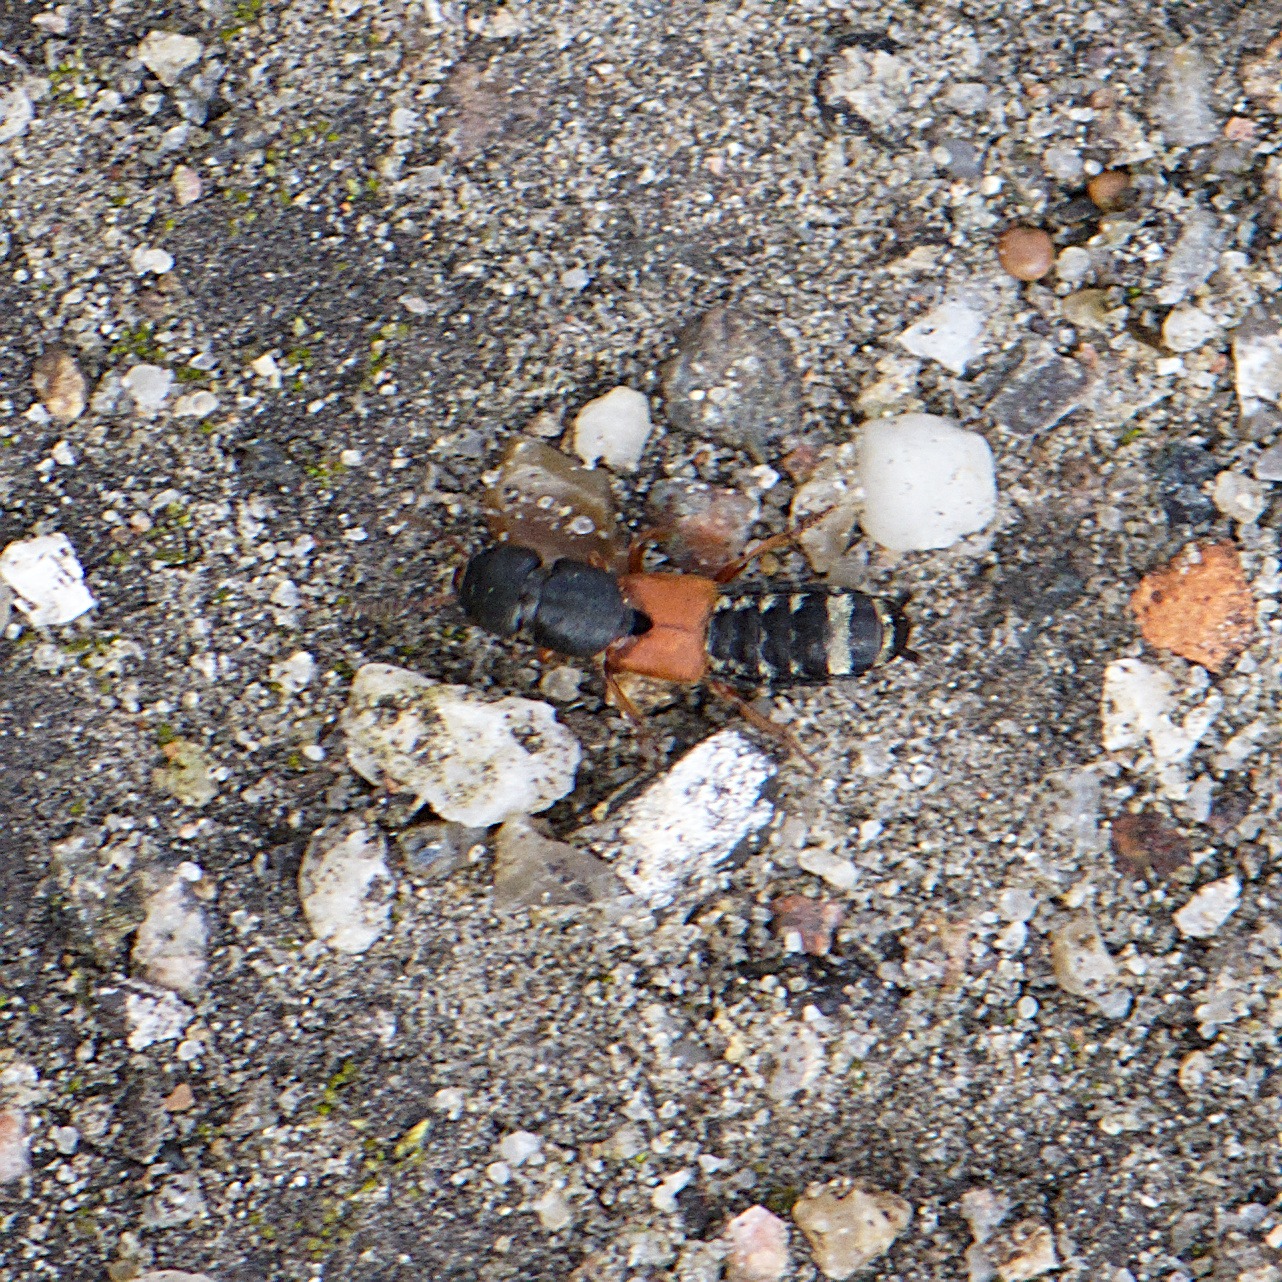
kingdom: Animalia
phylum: Arthropoda
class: Insecta
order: Coleoptera
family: Staphylinidae
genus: Platydracus
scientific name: Platydracus stercorarius
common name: Almindelig guldpletrovbille
